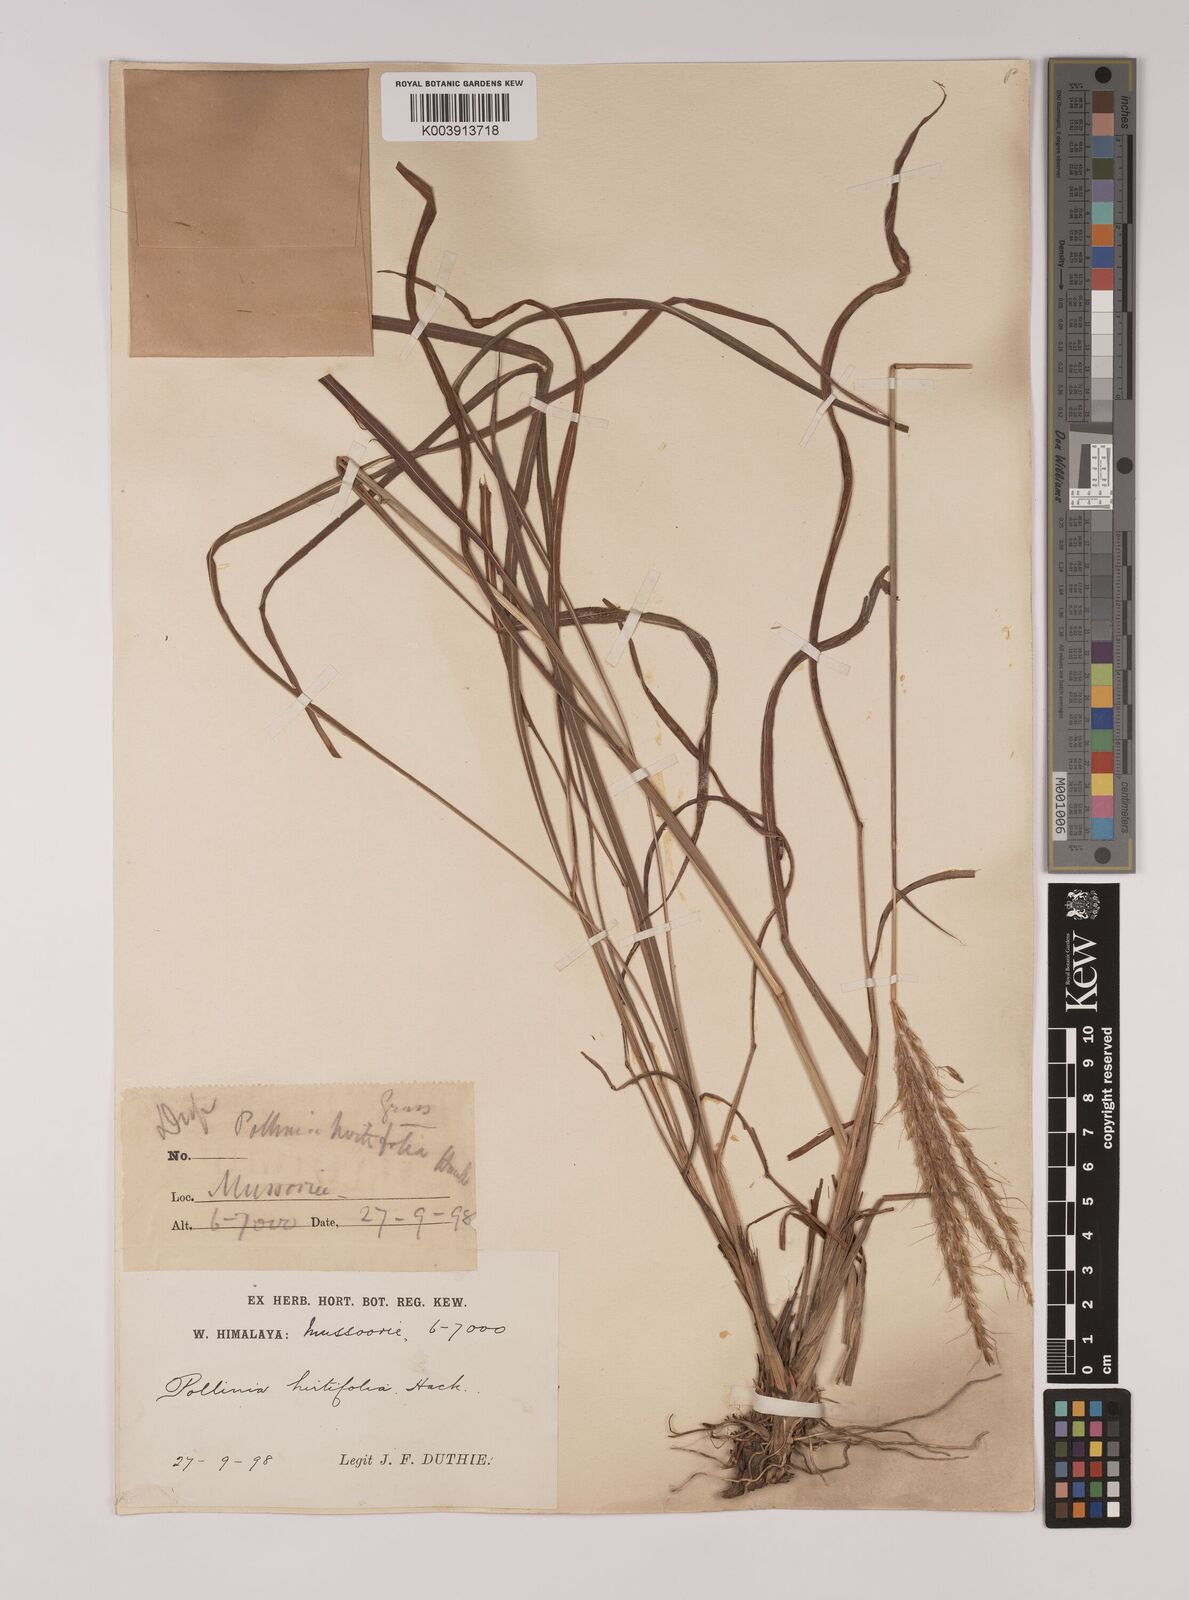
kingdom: Plantae
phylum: Tracheophyta
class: Liliopsida
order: Poales
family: Poaceae
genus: Eulalia
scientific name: Eulalia hirtifolia
